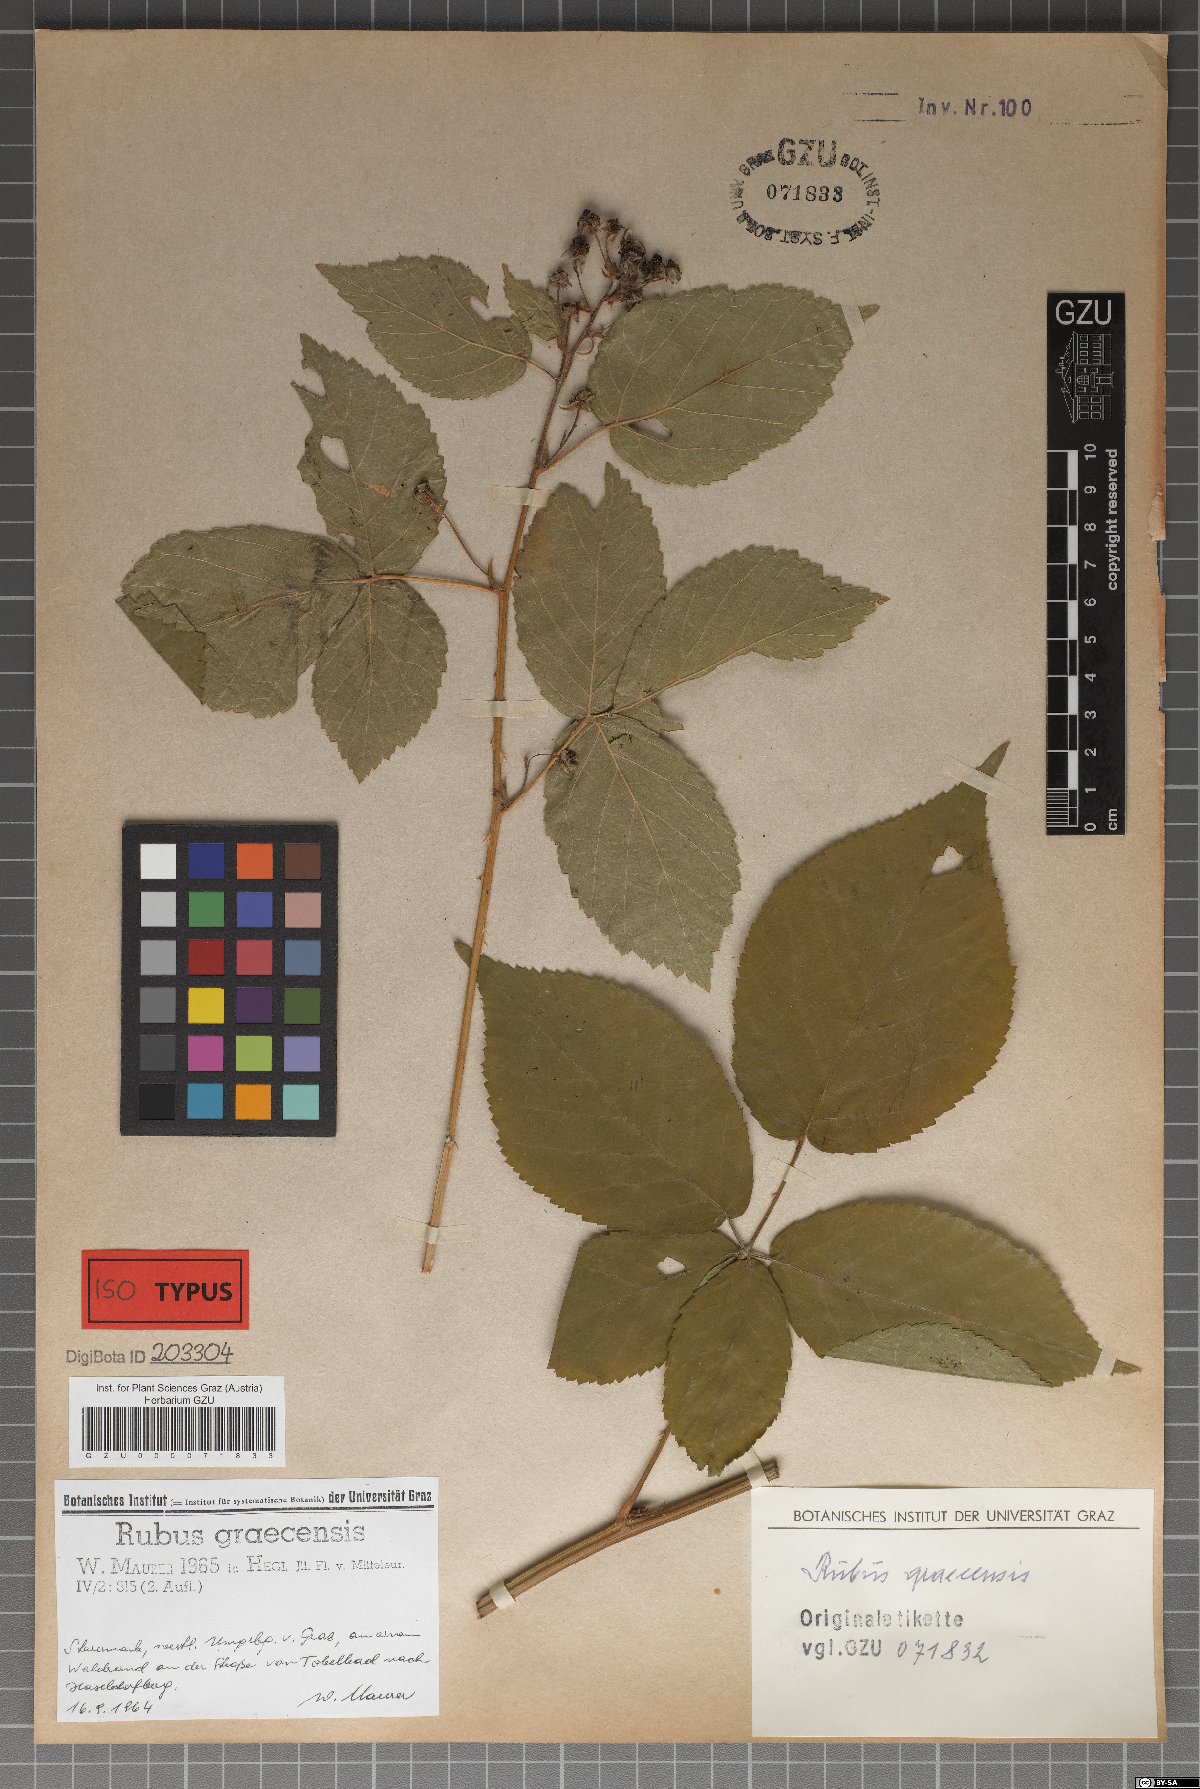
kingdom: Plantae
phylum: Tracheophyta
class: Magnoliopsida
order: Rosales
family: Rosaceae
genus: Rubus
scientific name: Rubus graecensis
